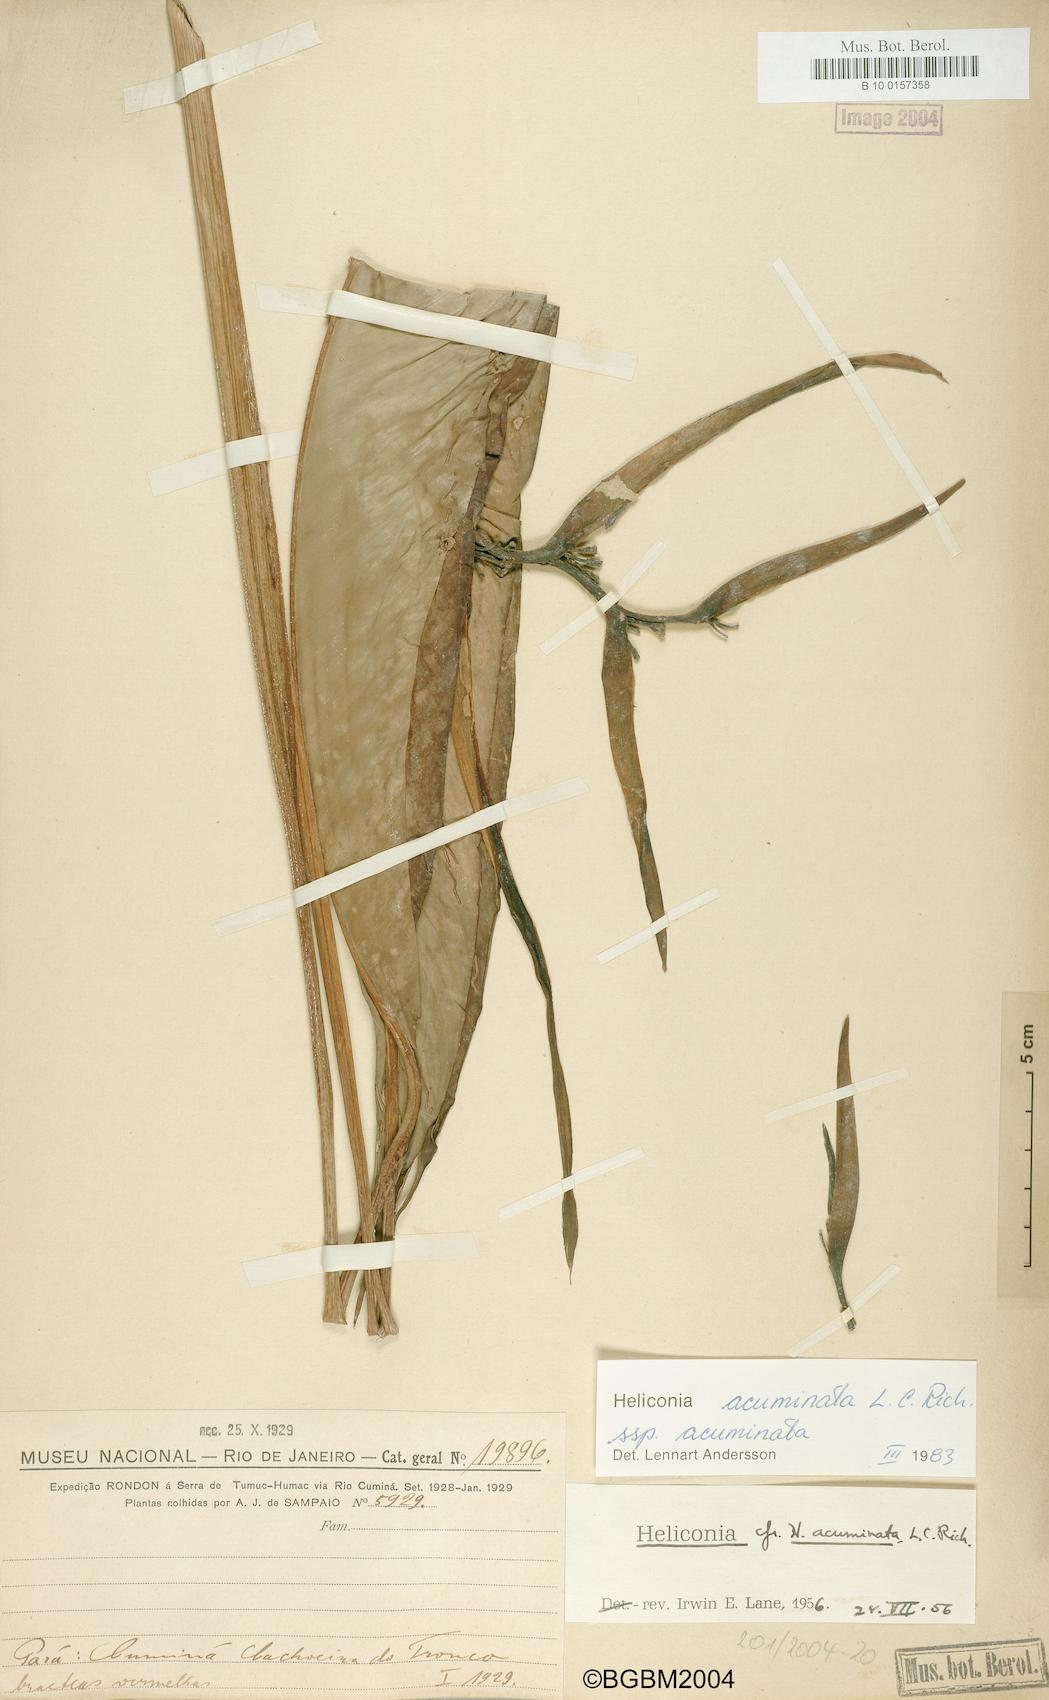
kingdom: Plantae
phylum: Tracheophyta
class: Liliopsida
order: Zingiberales
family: Heliconiaceae
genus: Heliconia
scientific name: Heliconia acuminata
